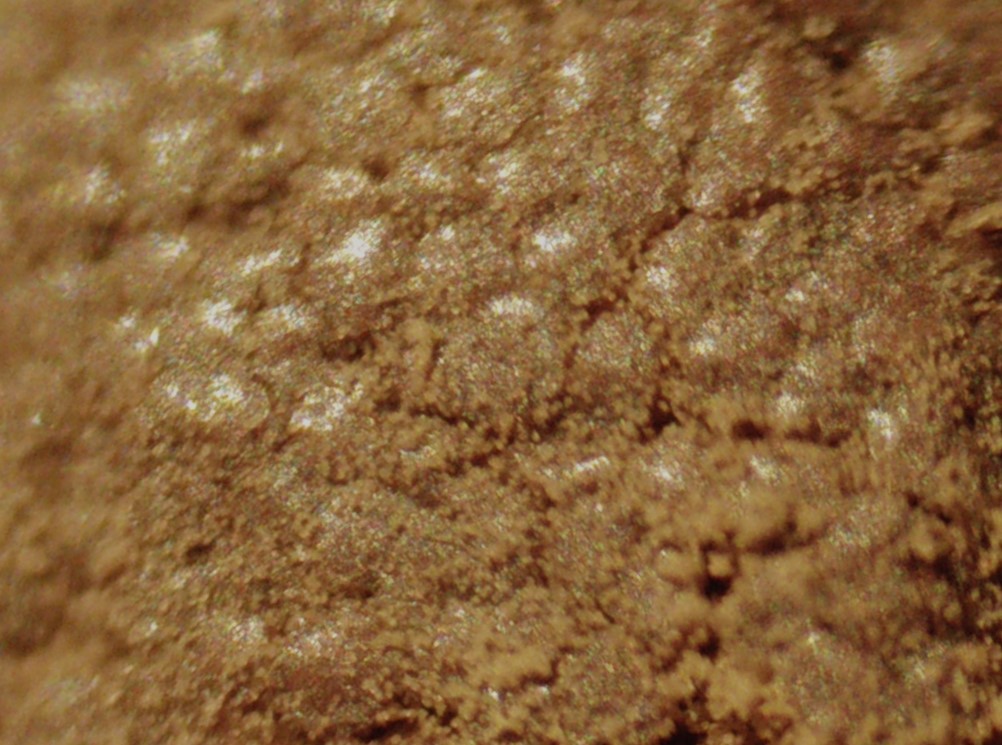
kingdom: Protozoa
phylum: Mycetozoa
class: Myxomycetes
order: Trichiales
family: Dictydiaethaliaceae
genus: Dictydiaethalium
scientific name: Dictydiaethalium plumbeum
